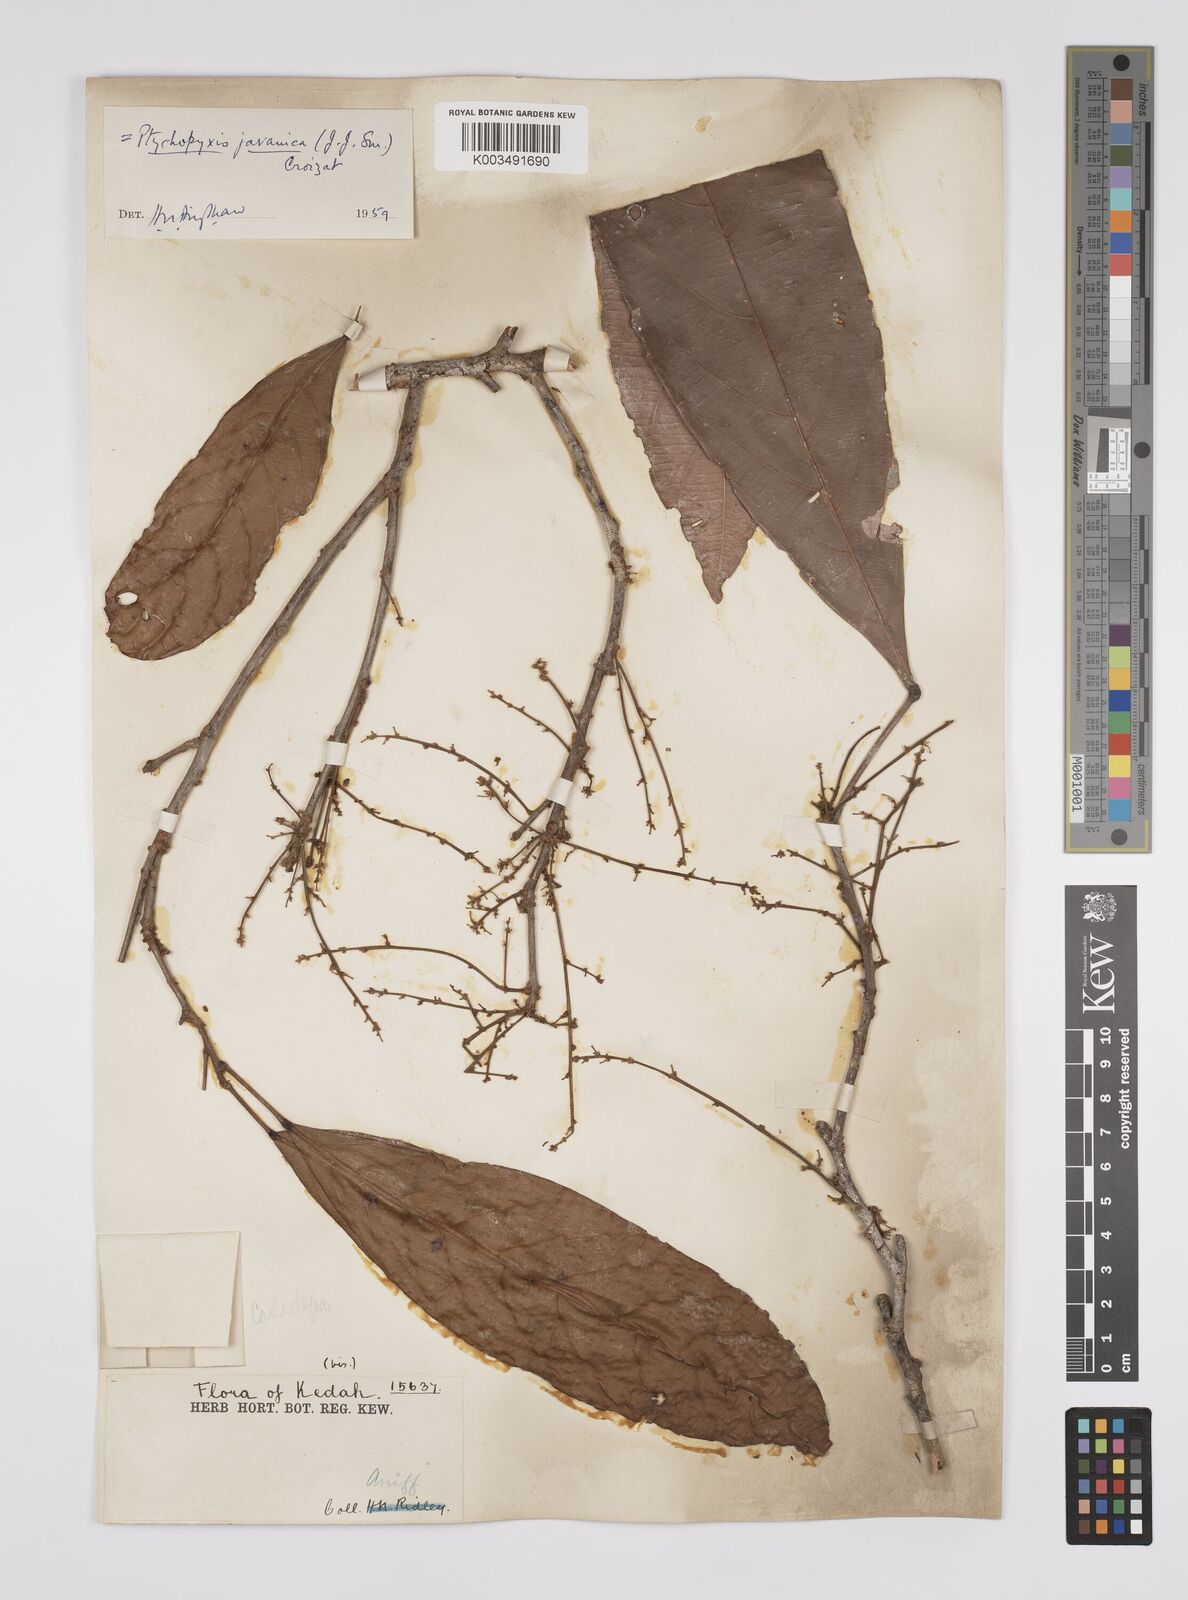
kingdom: Plantae
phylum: Tracheophyta
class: Magnoliopsida
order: Malpighiales
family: Euphorbiaceae
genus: Ptychopyxis
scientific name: Ptychopyxis javanica
